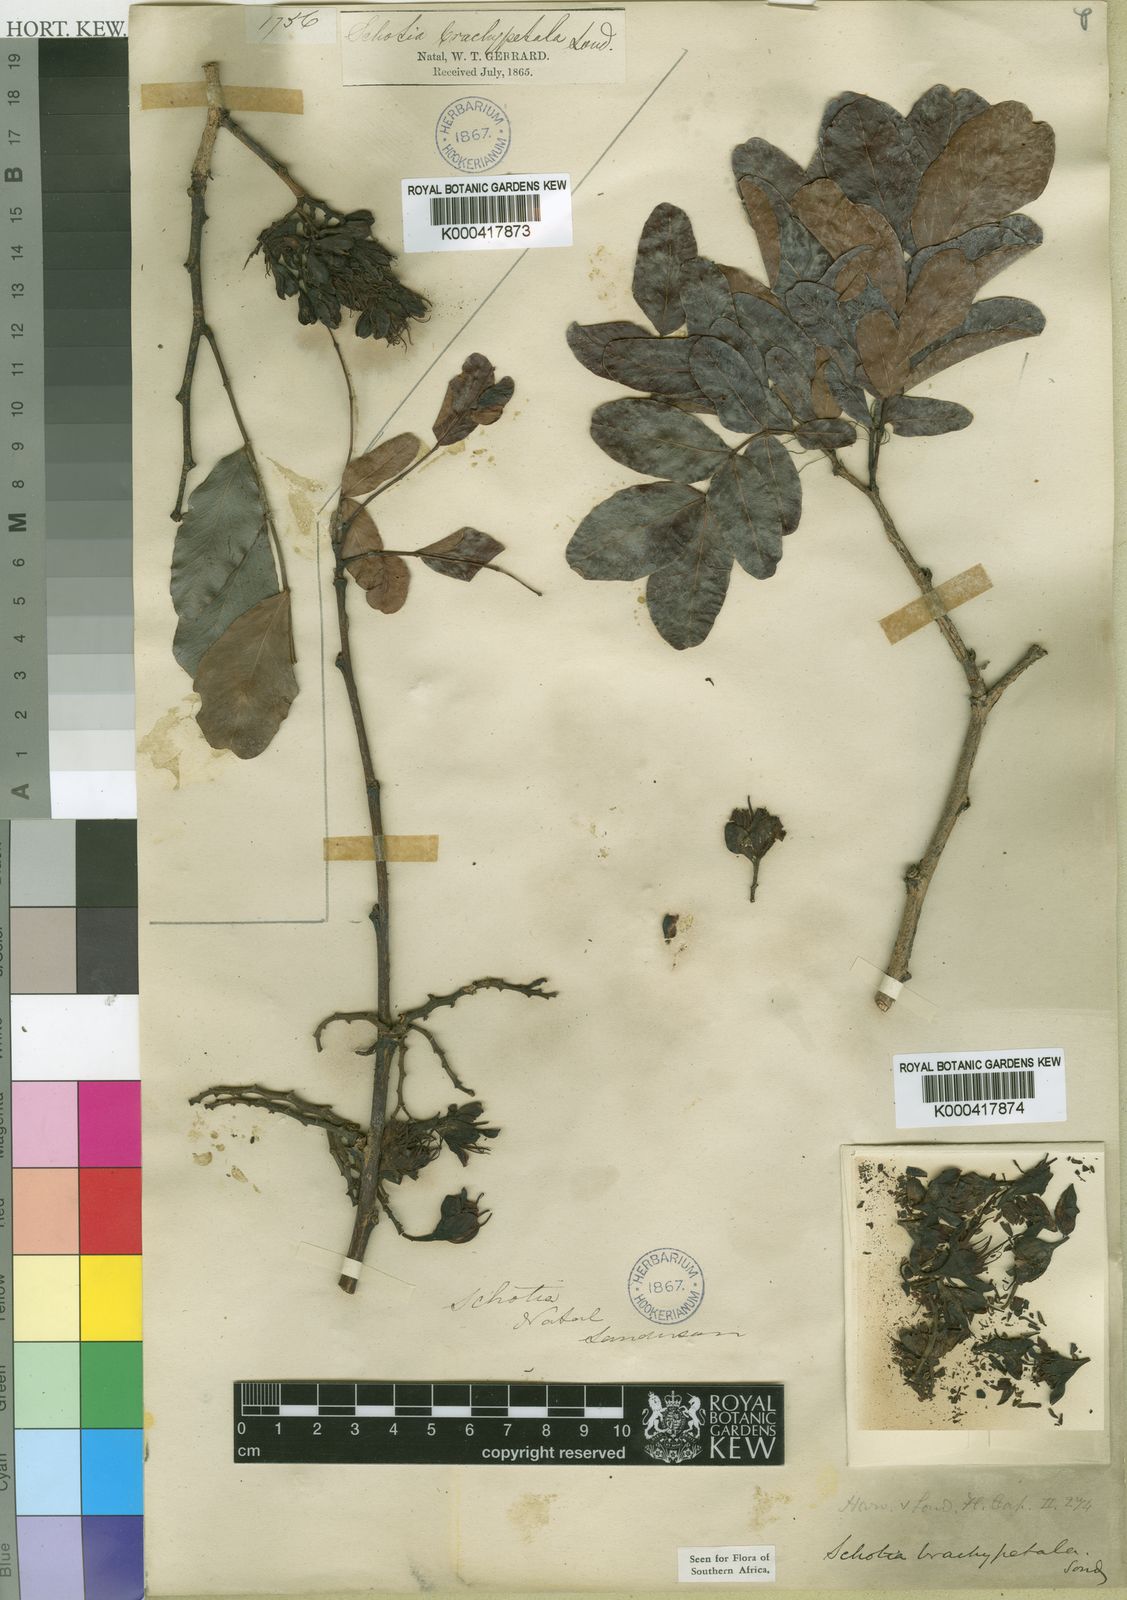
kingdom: Plantae
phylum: Tracheophyta
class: Magnoliopsida
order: Fabales
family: Fabaceae
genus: Schotia
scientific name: Schotia brachypetala
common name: Weeping boer-bean
